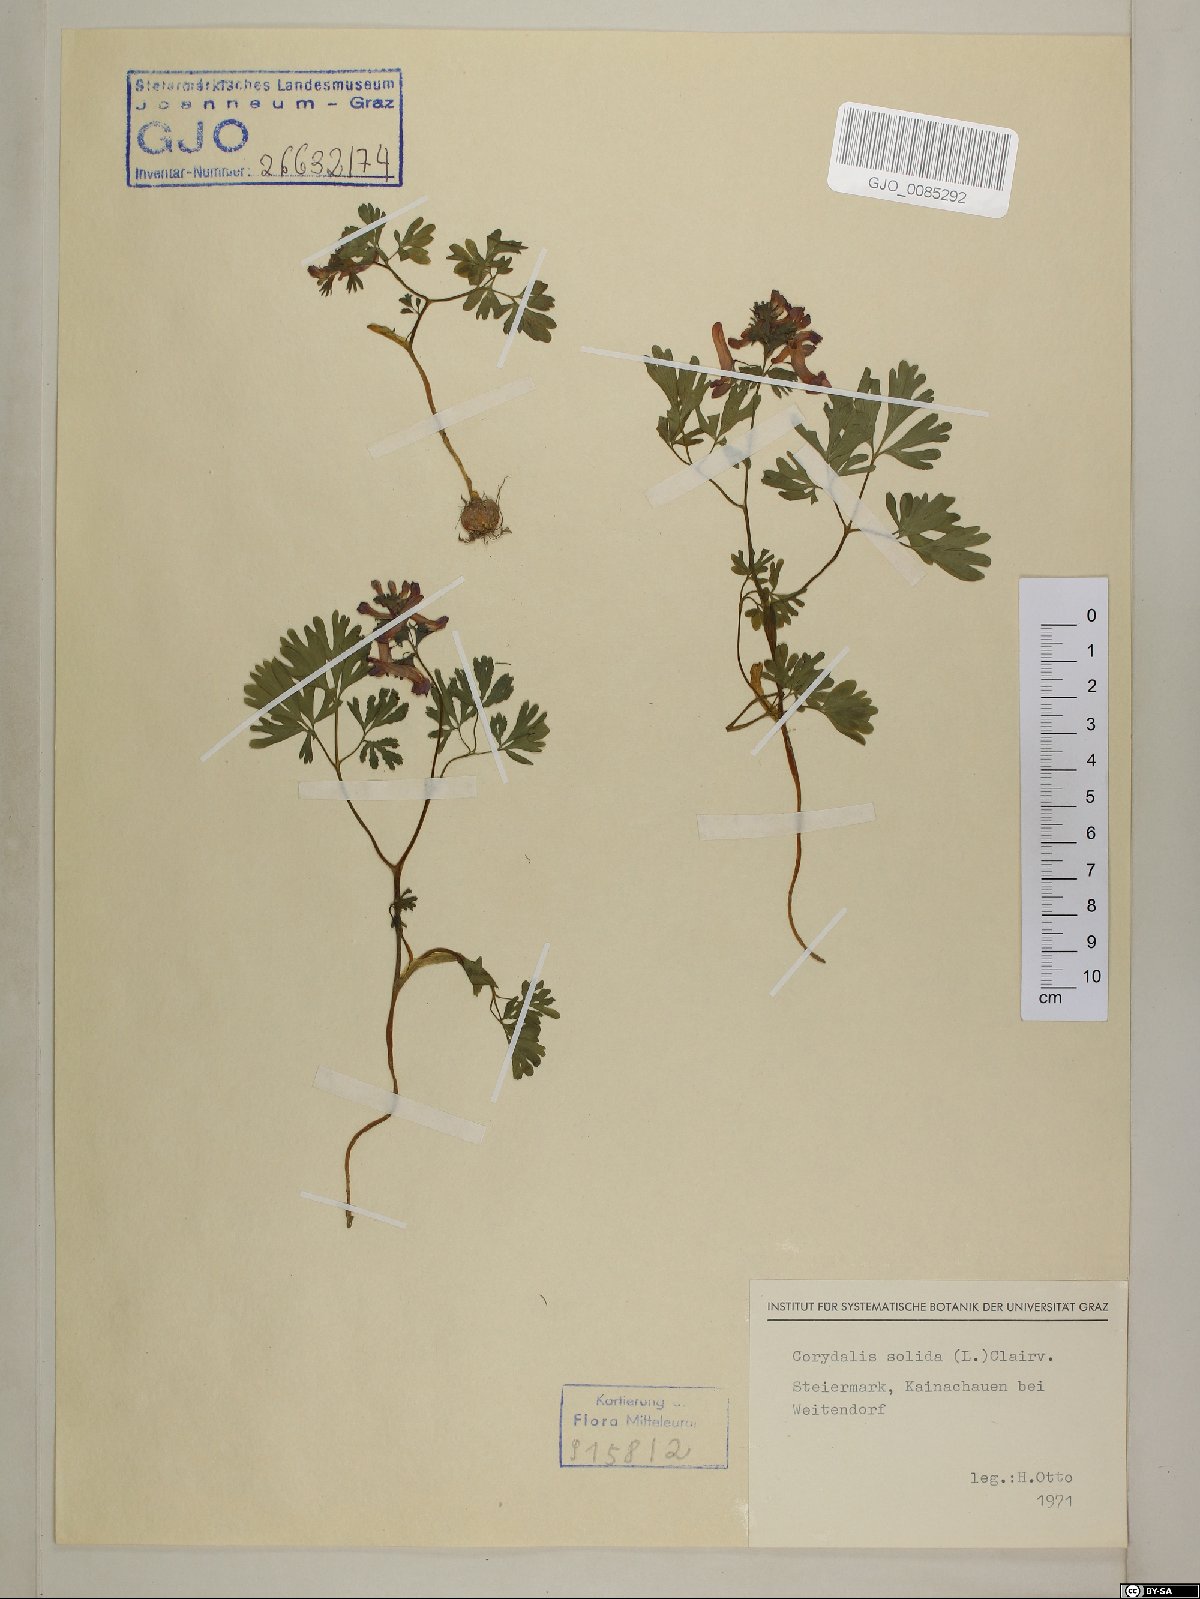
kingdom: Plantae
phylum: Tracheophyta
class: Magnoliopsida
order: Ranunculales
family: Papaveraceae
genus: Corydalis
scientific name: Corydalis solida
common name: Bird-in-a-bush
